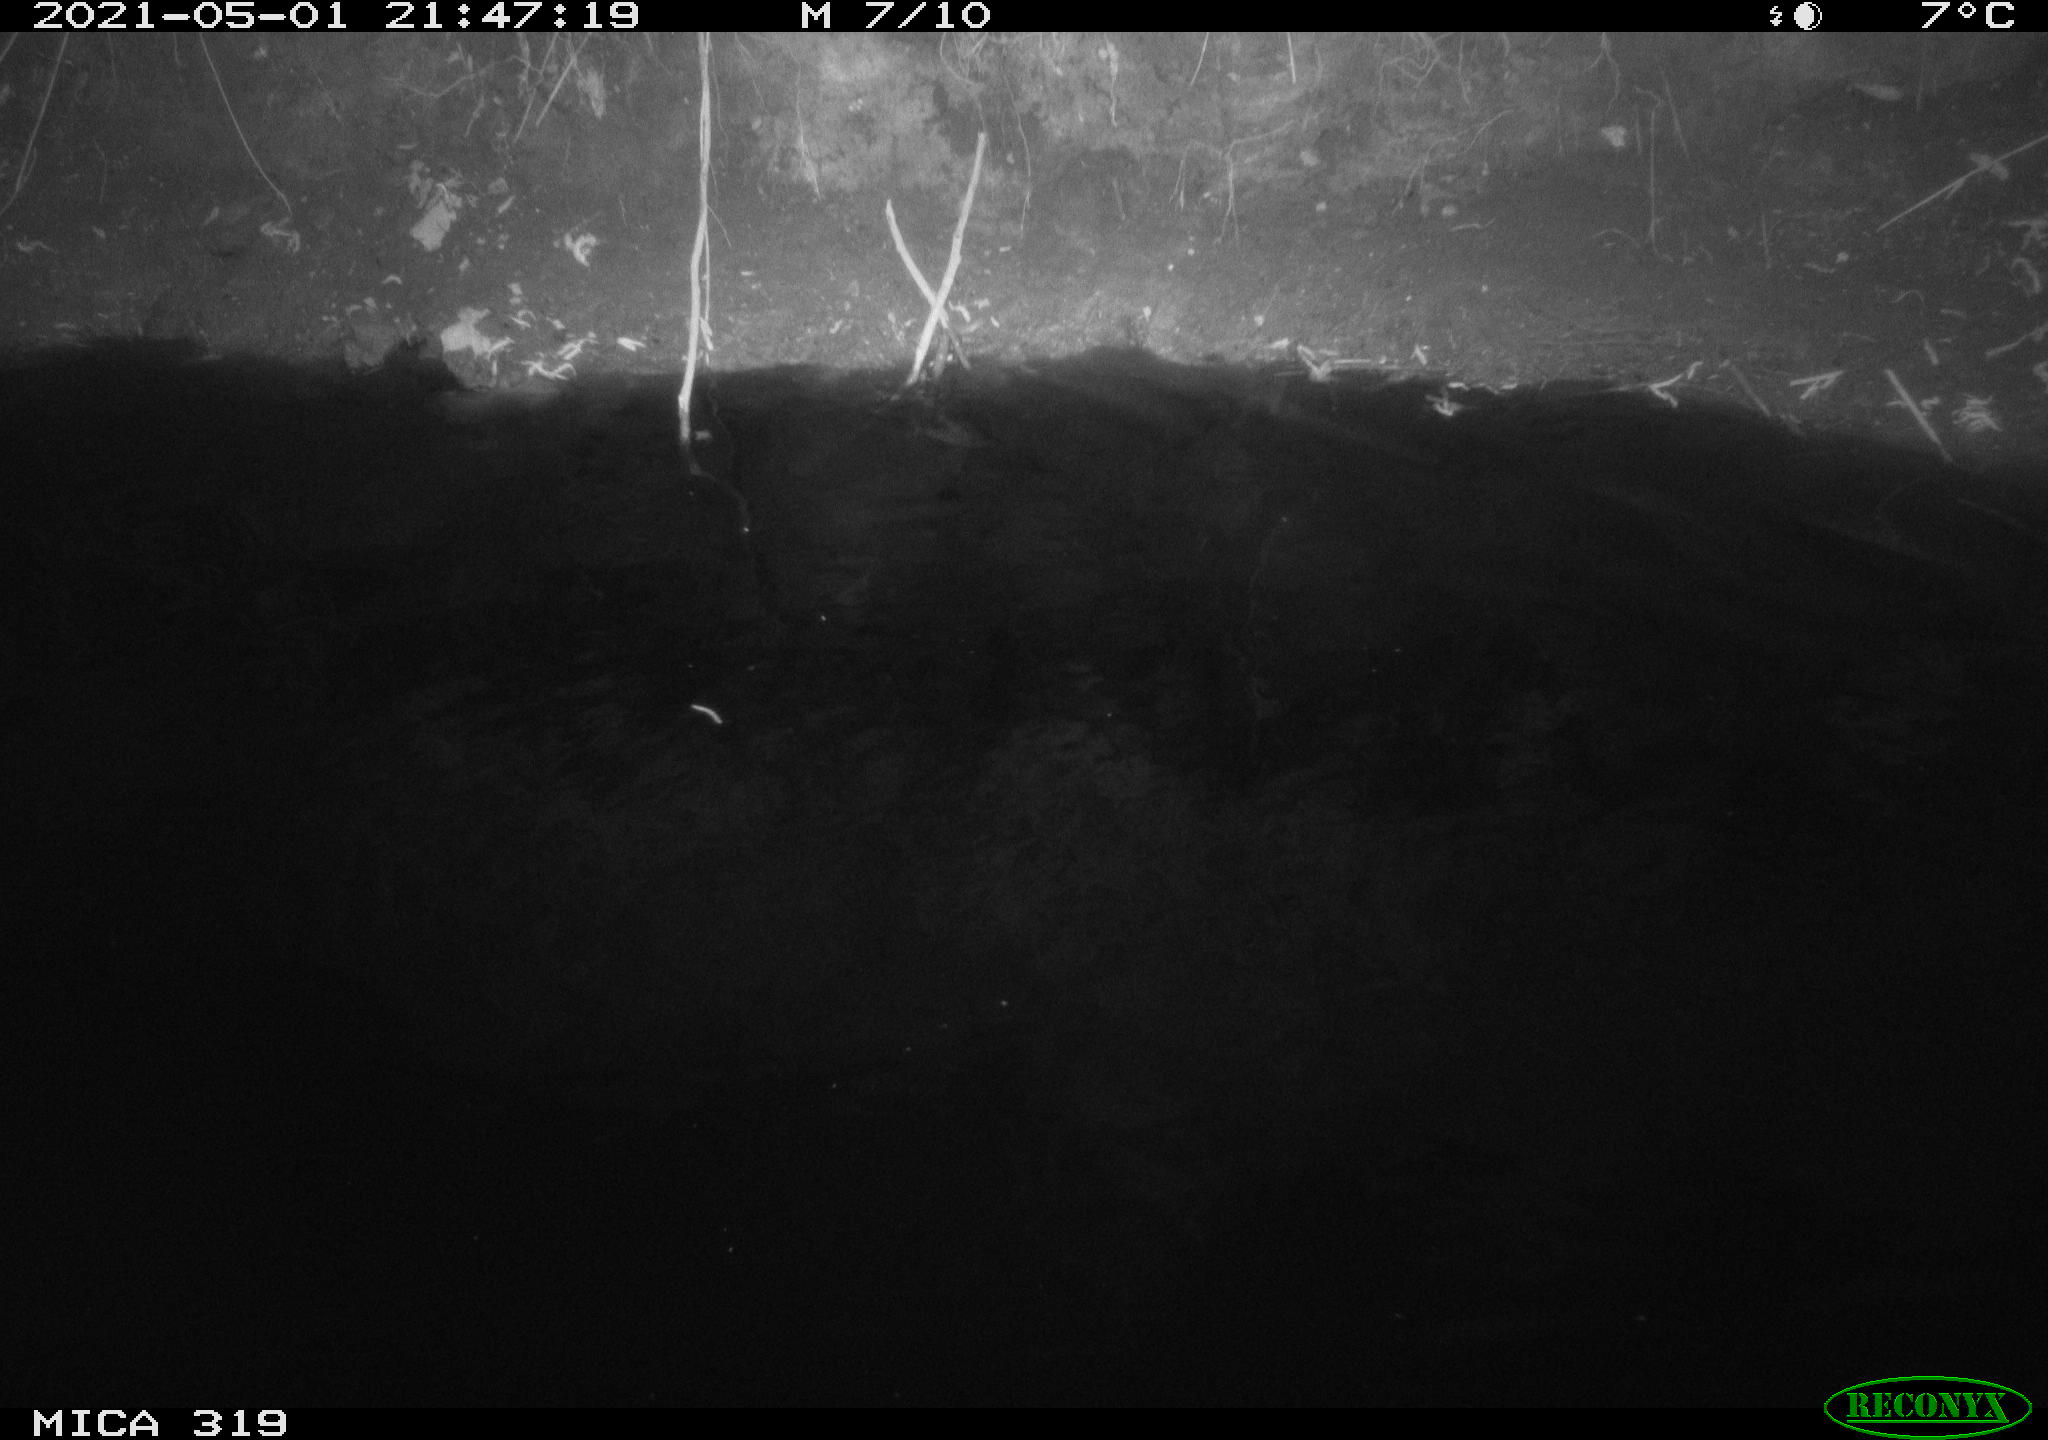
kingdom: Animalia
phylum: Chordata
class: Aves
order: Anseriformes
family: Anatidae
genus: Anas
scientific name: Anas platyrhynchos
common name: Mallard
